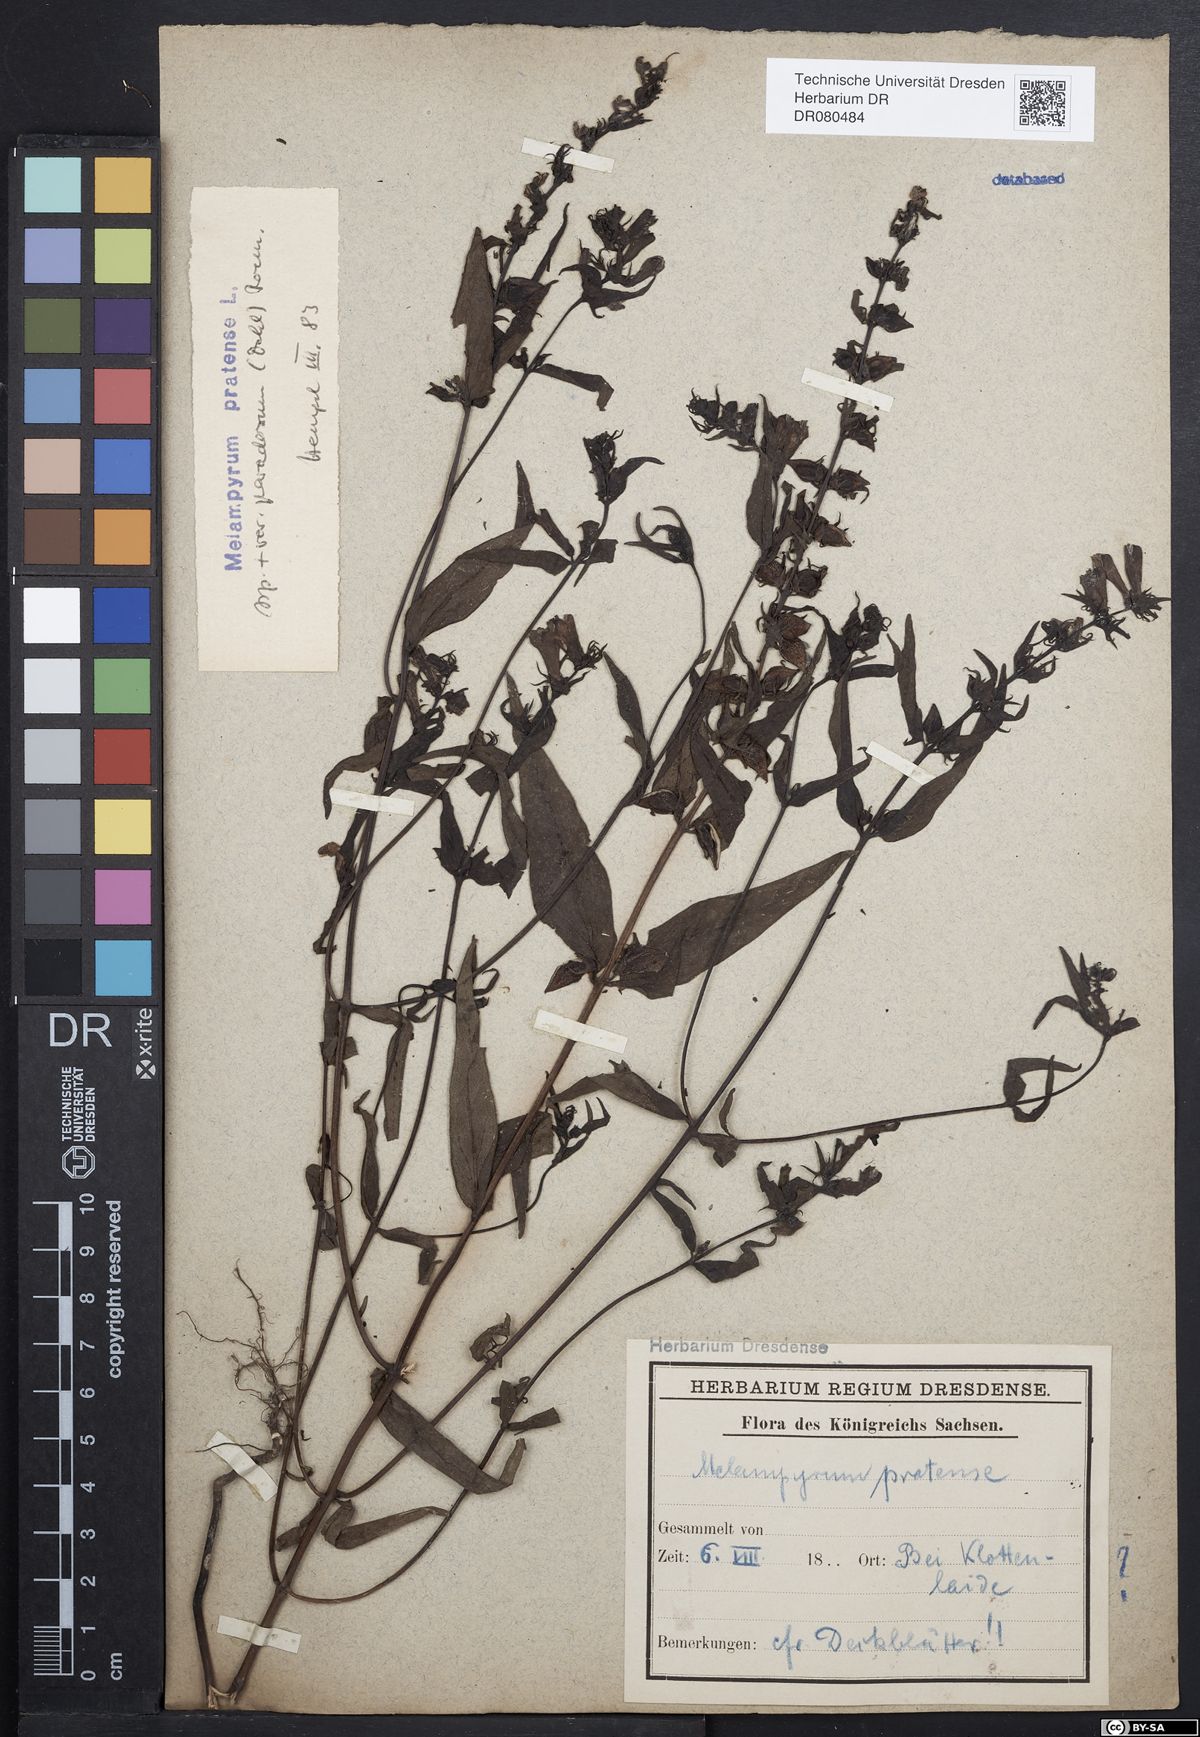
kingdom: Plantae
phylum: Tracheophyta
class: Magnoliopsida
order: Lamiales
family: Orobanchaceae
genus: Melampyrum
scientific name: Melampyrum pratense
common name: Common cow-wheat
